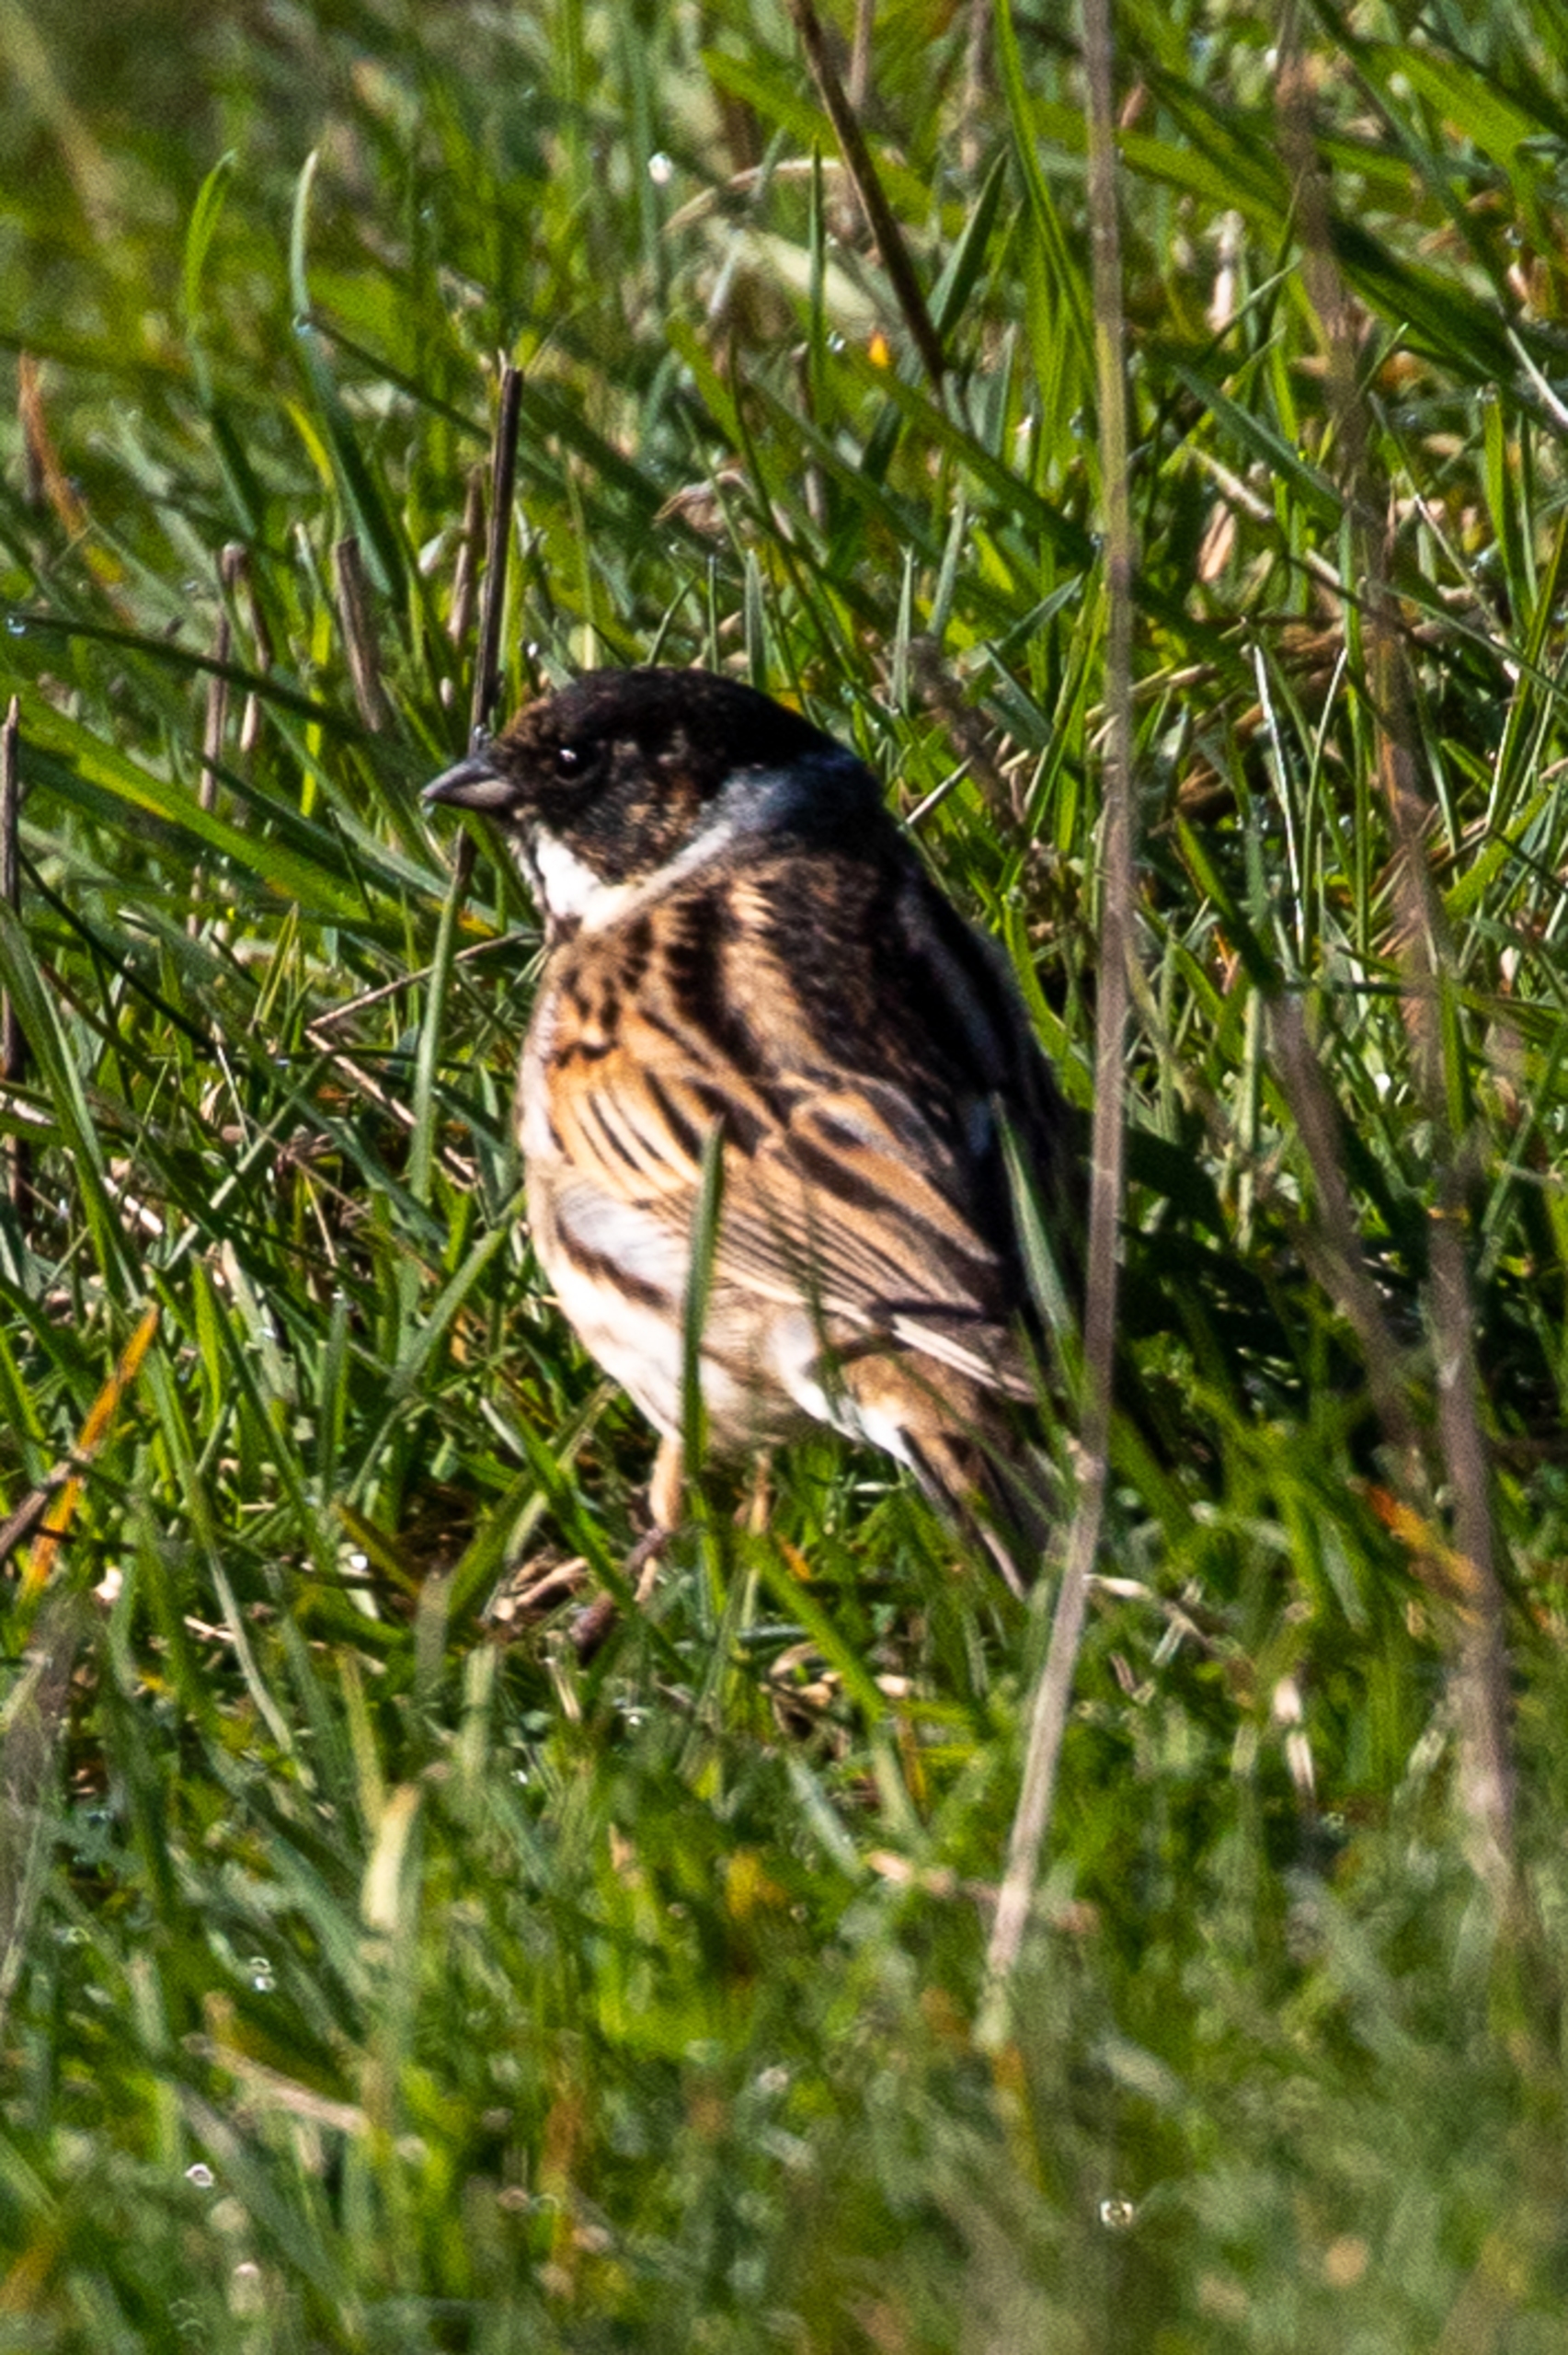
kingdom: Animalia
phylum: Chordata
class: Aves
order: Passeriformes
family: Emberizidae
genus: Emberiza
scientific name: Emberiza schoeniclus
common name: Rørspurv
